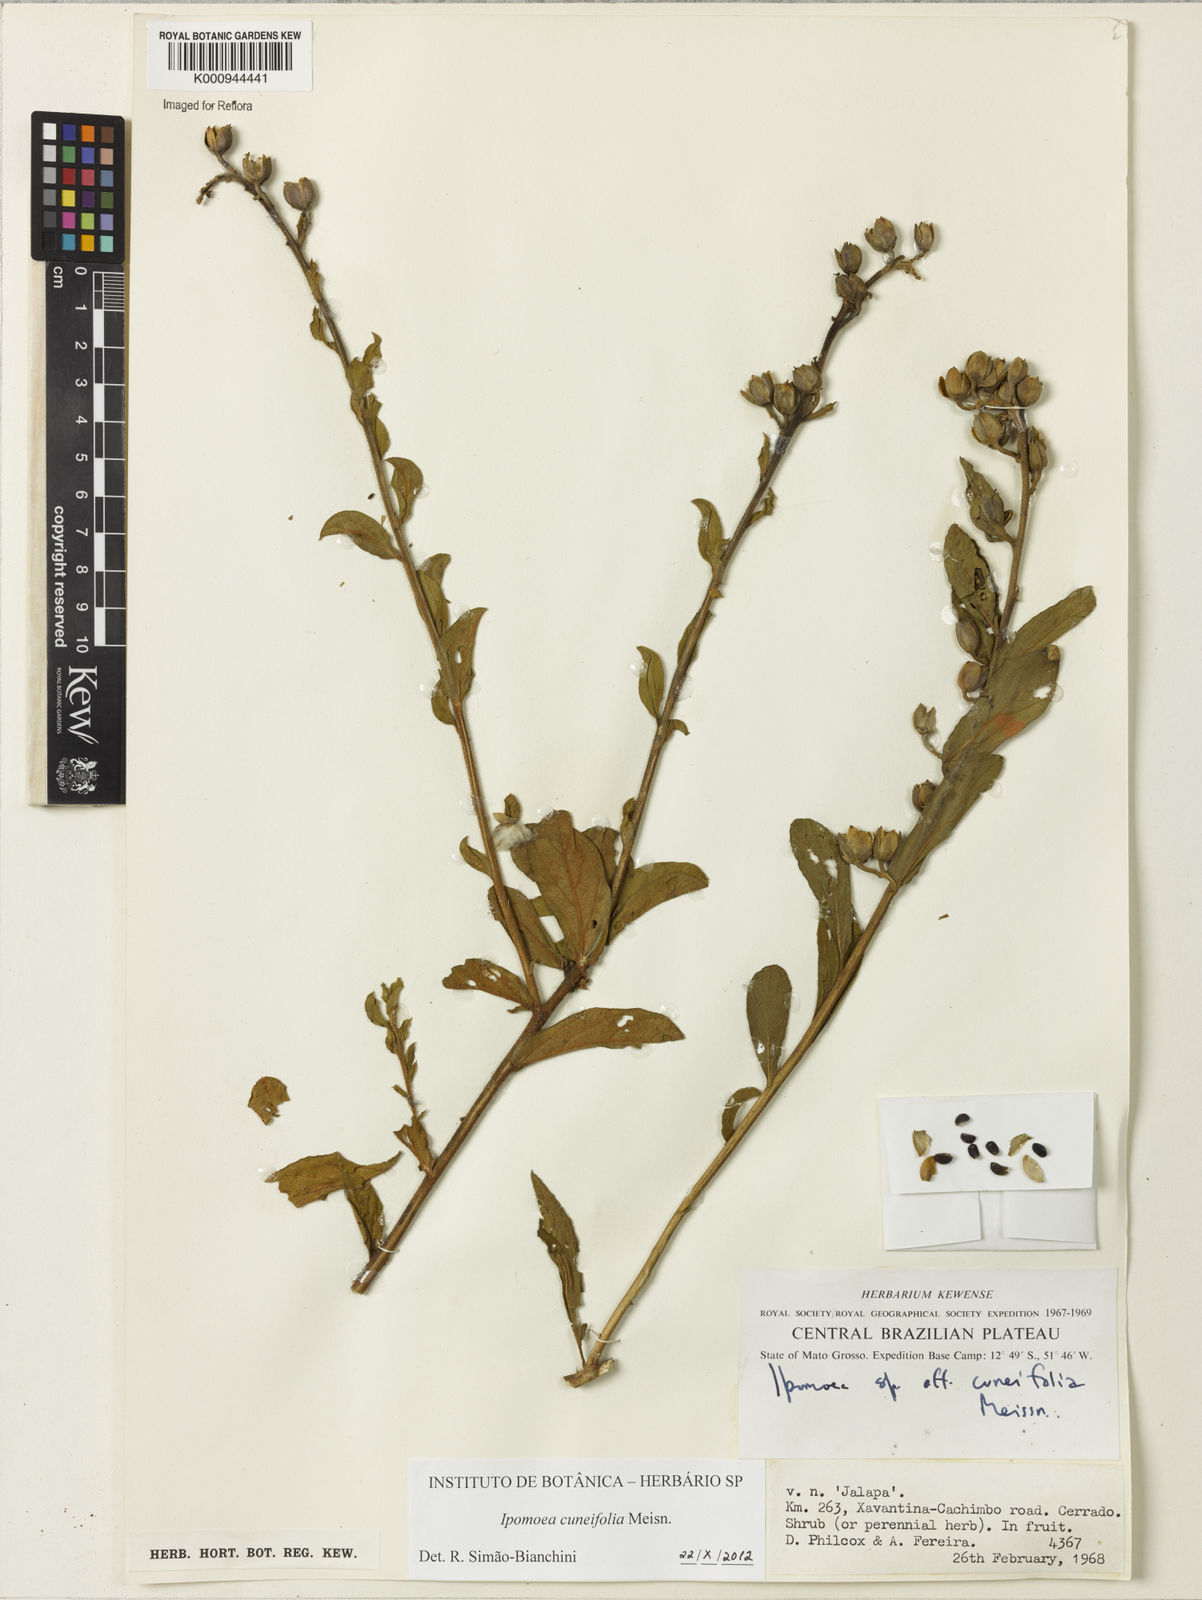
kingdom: Plantae
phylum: Tracheophyta
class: Magnoliopsida
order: Solanales
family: Convolvulaceae
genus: Ipomoea
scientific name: Ipomoea cuneifolia
